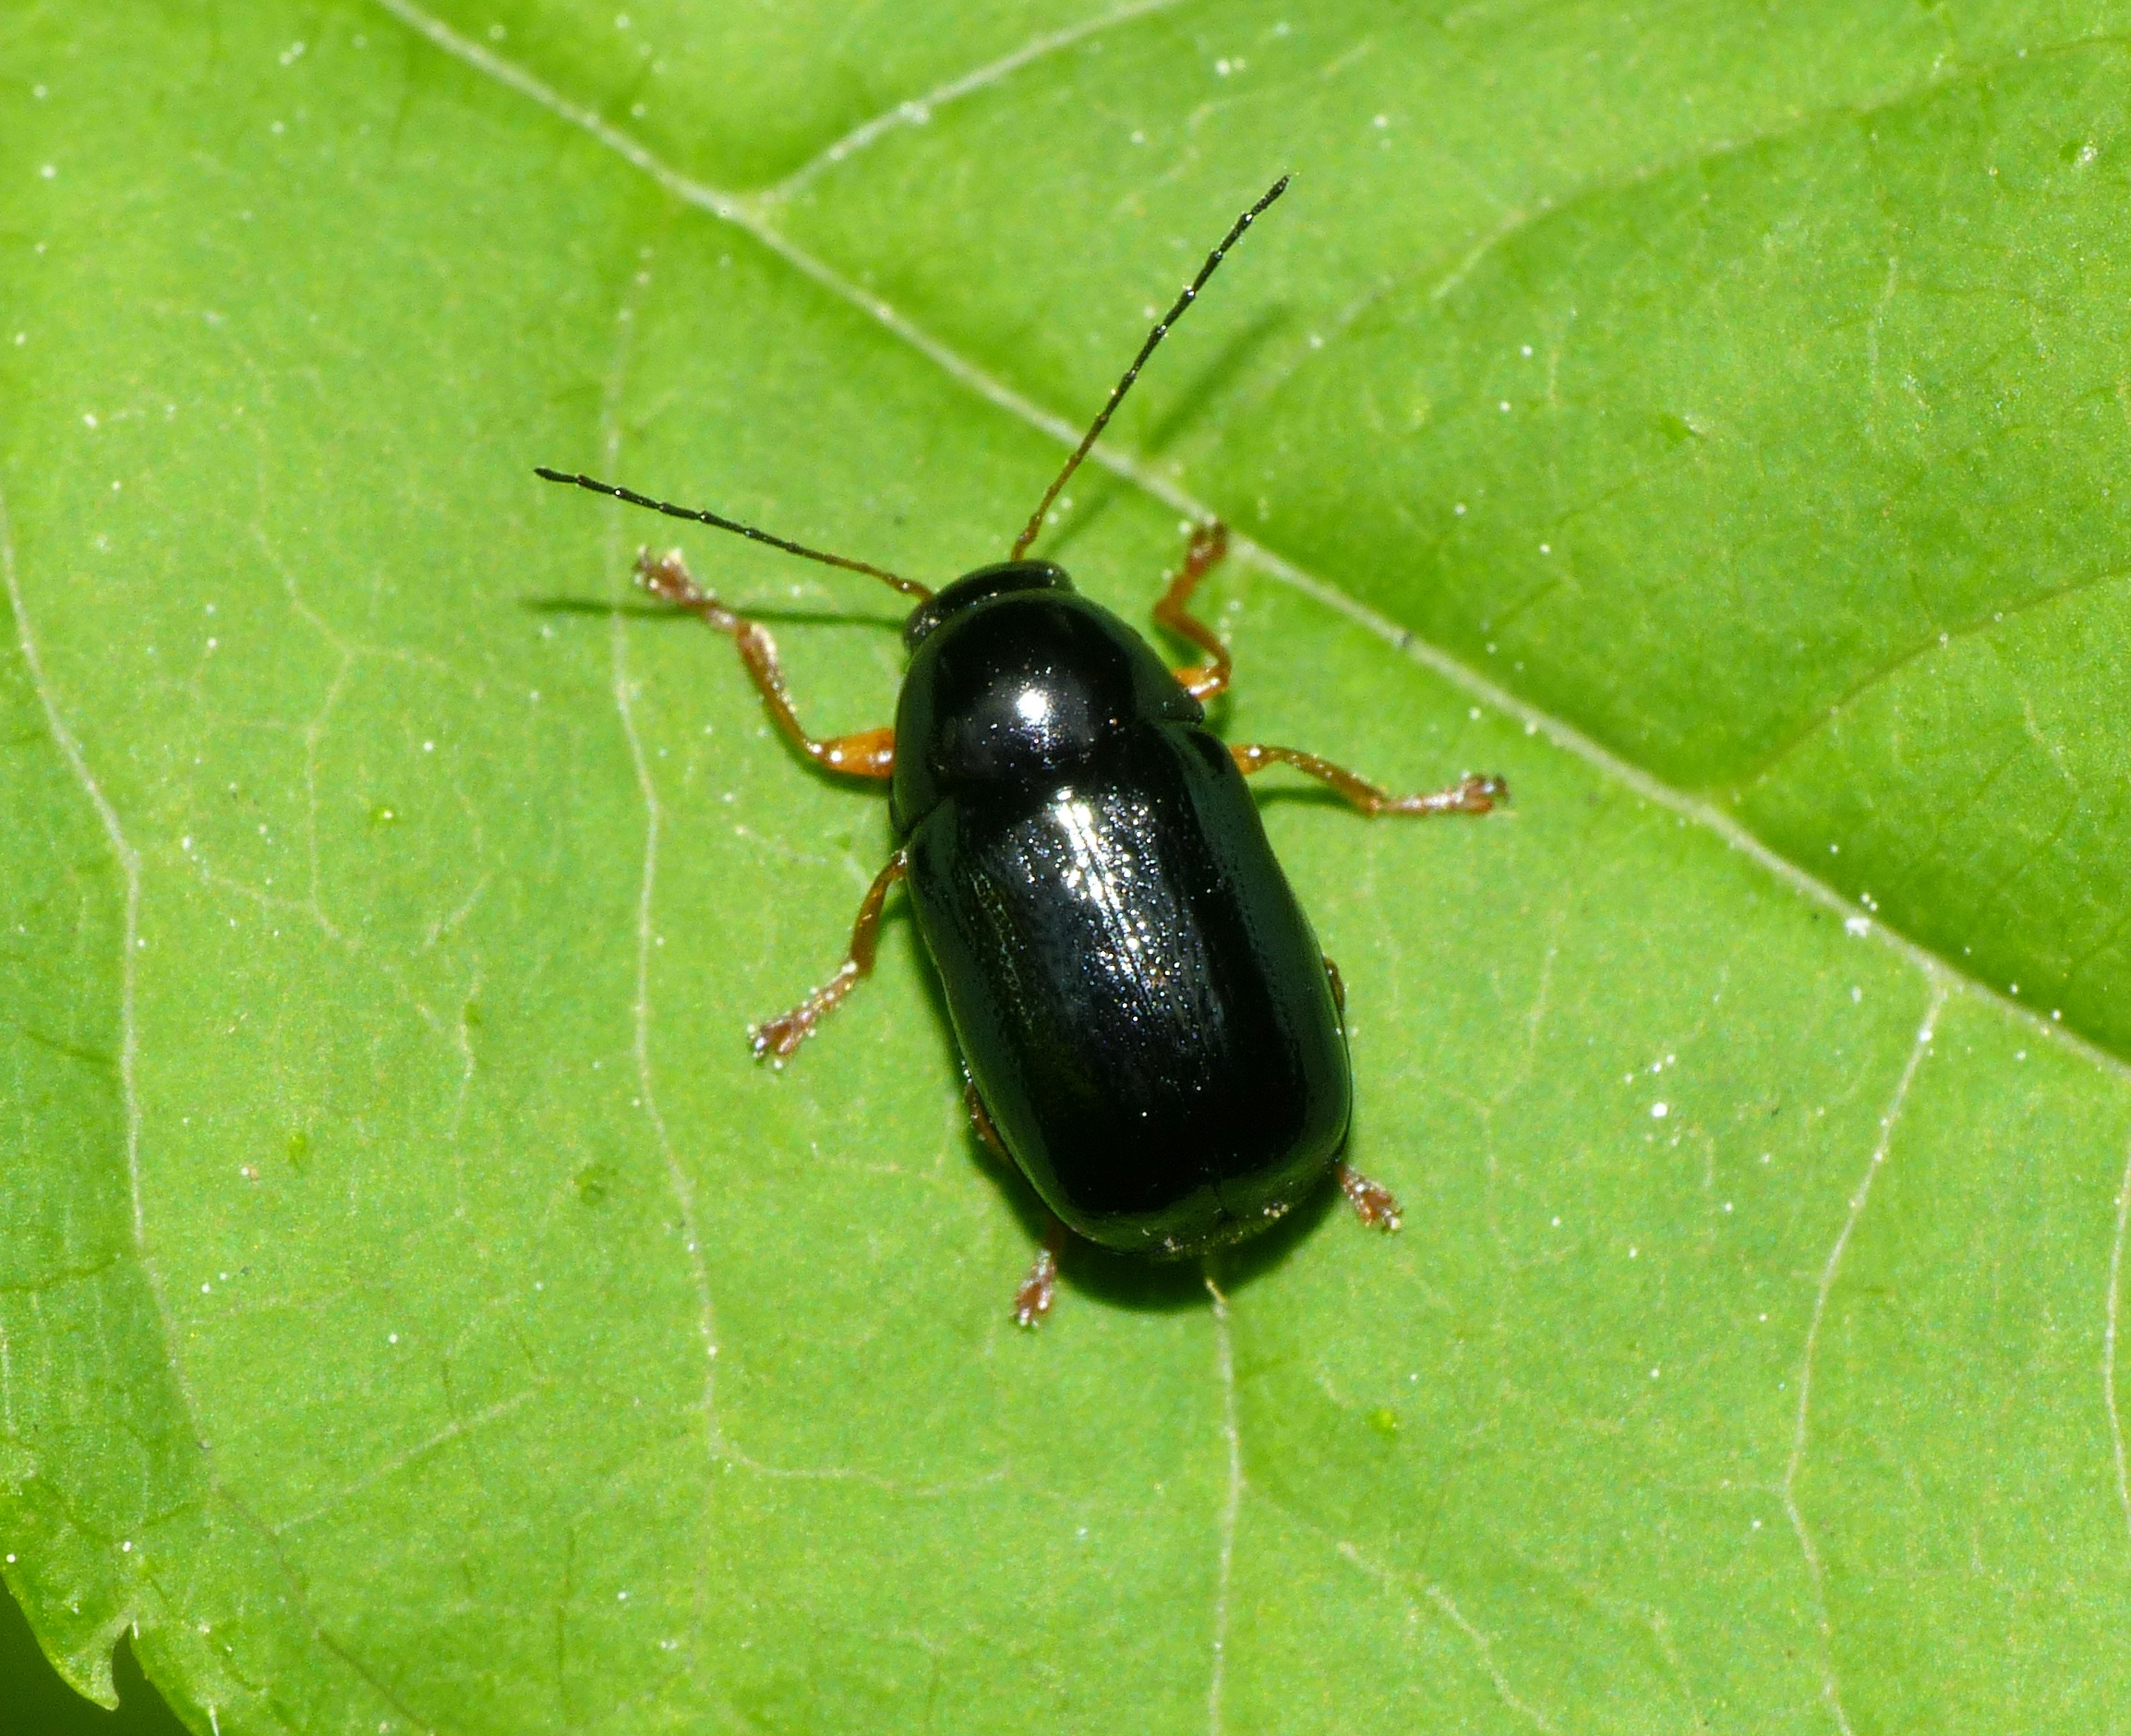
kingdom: Animalia
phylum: Arthropoda
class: Insecta
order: Coleoptera
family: Chrysomelidae
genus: Cryptocephalus
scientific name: Cryptocephalus nitidus
